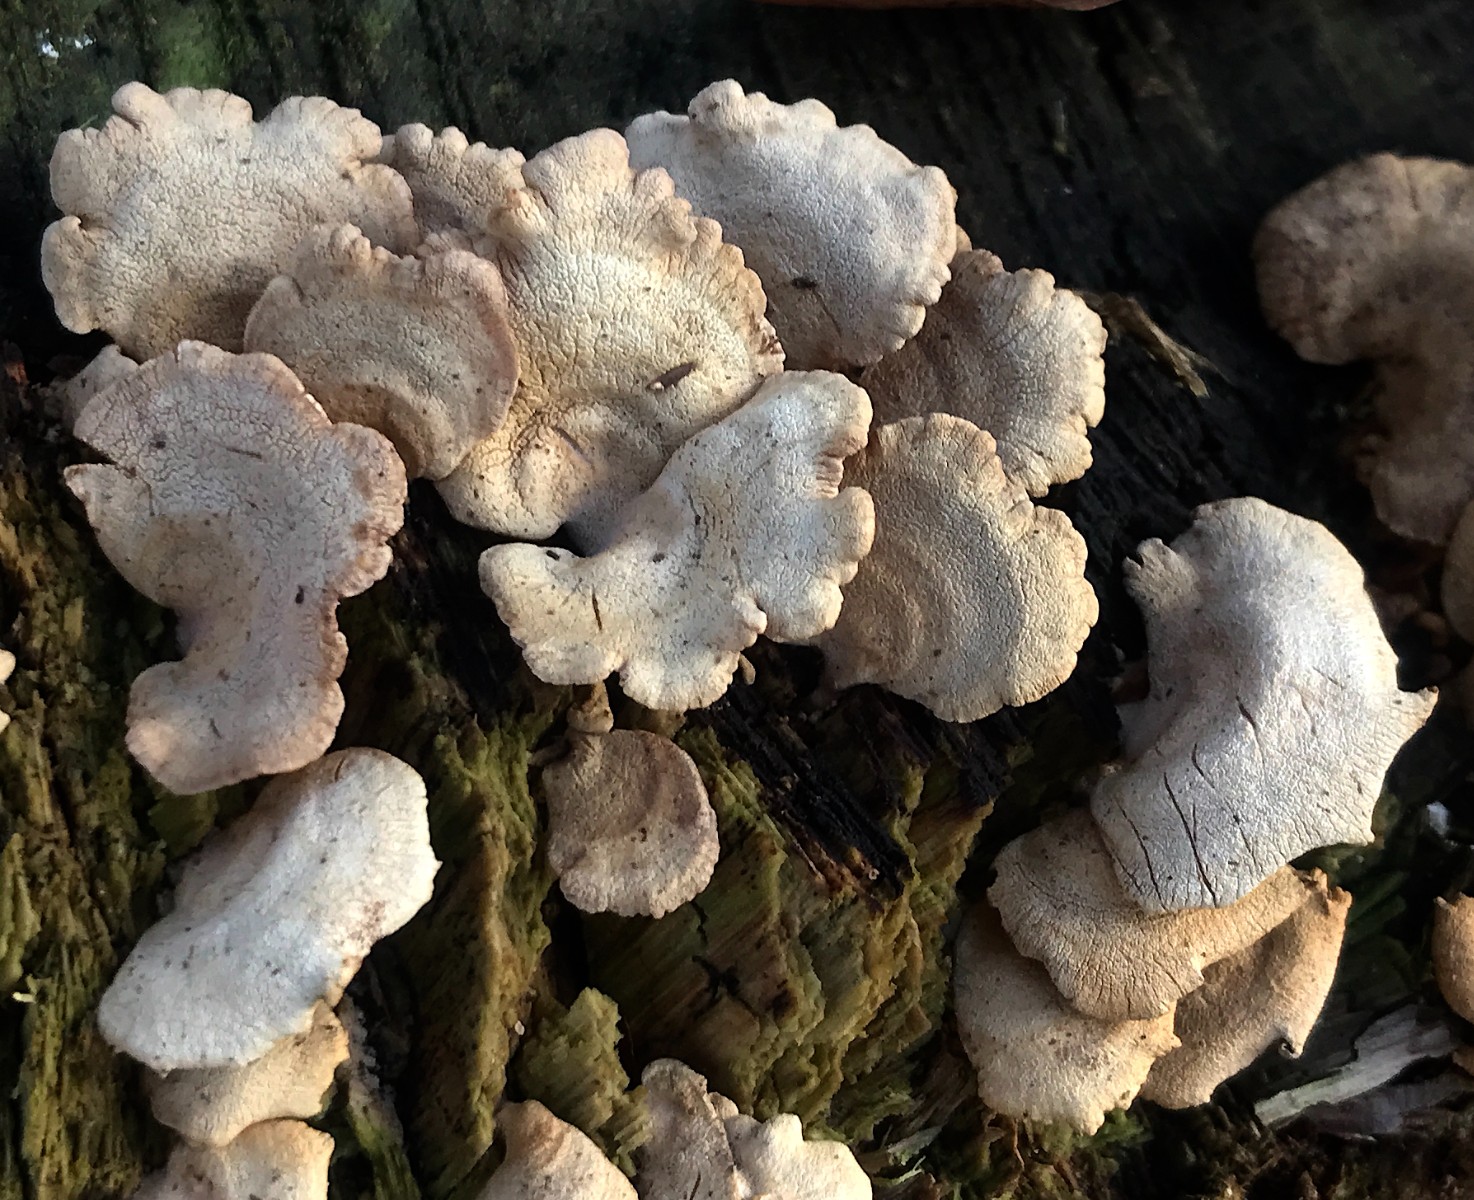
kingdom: Fungi
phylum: Basidiomycota
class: Agaricomycetes
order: Agaricales
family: Mycenaceae
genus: Panellus
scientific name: Panellus stipticus
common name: kliddet epaulethat
